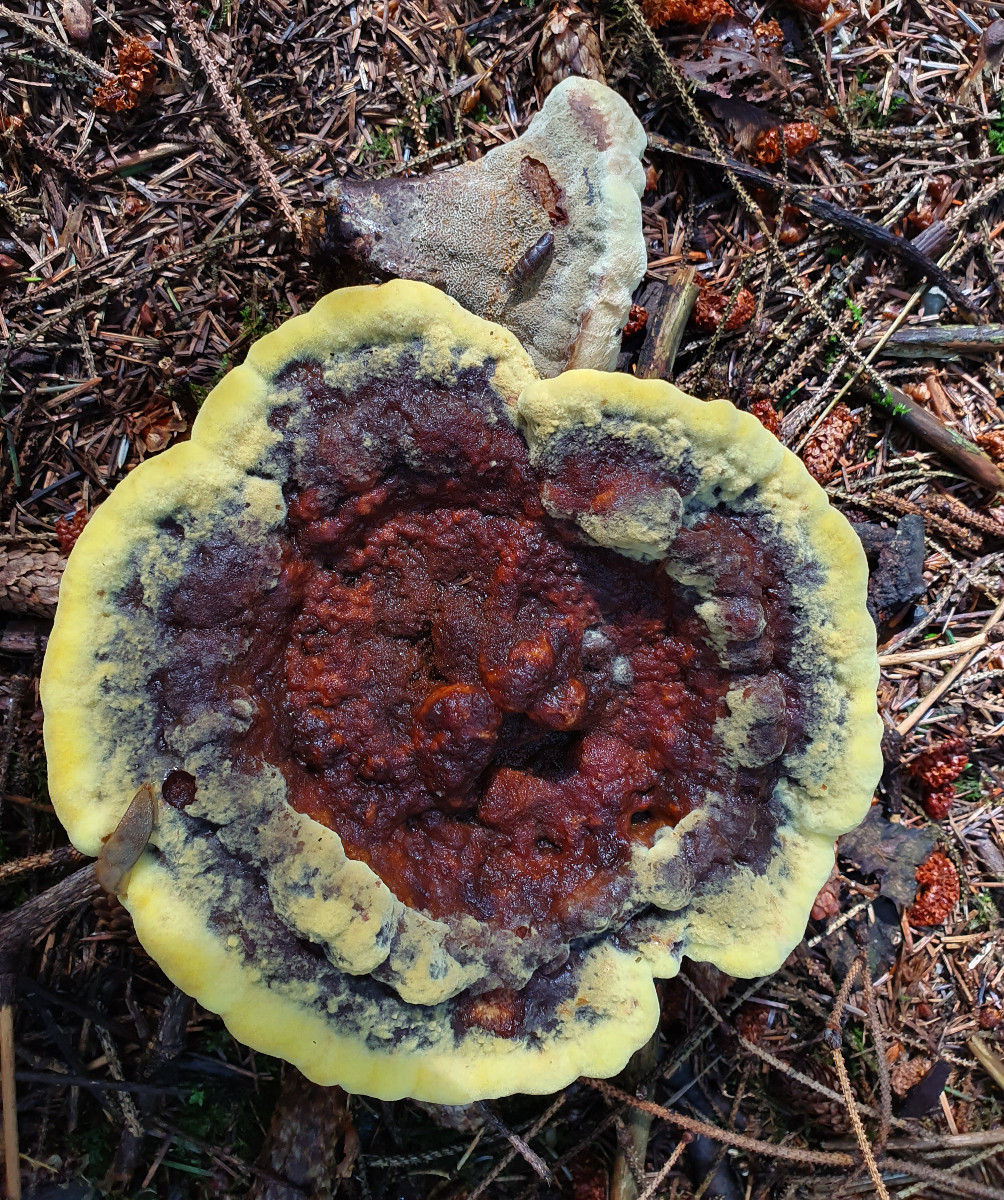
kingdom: Fungi
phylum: Basidiomycota
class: Agaricomycetes
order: Polyporales
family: Laetiporaceae
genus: Phaeolus
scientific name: Phaeolus schweinitzii
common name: brunporesvamp
